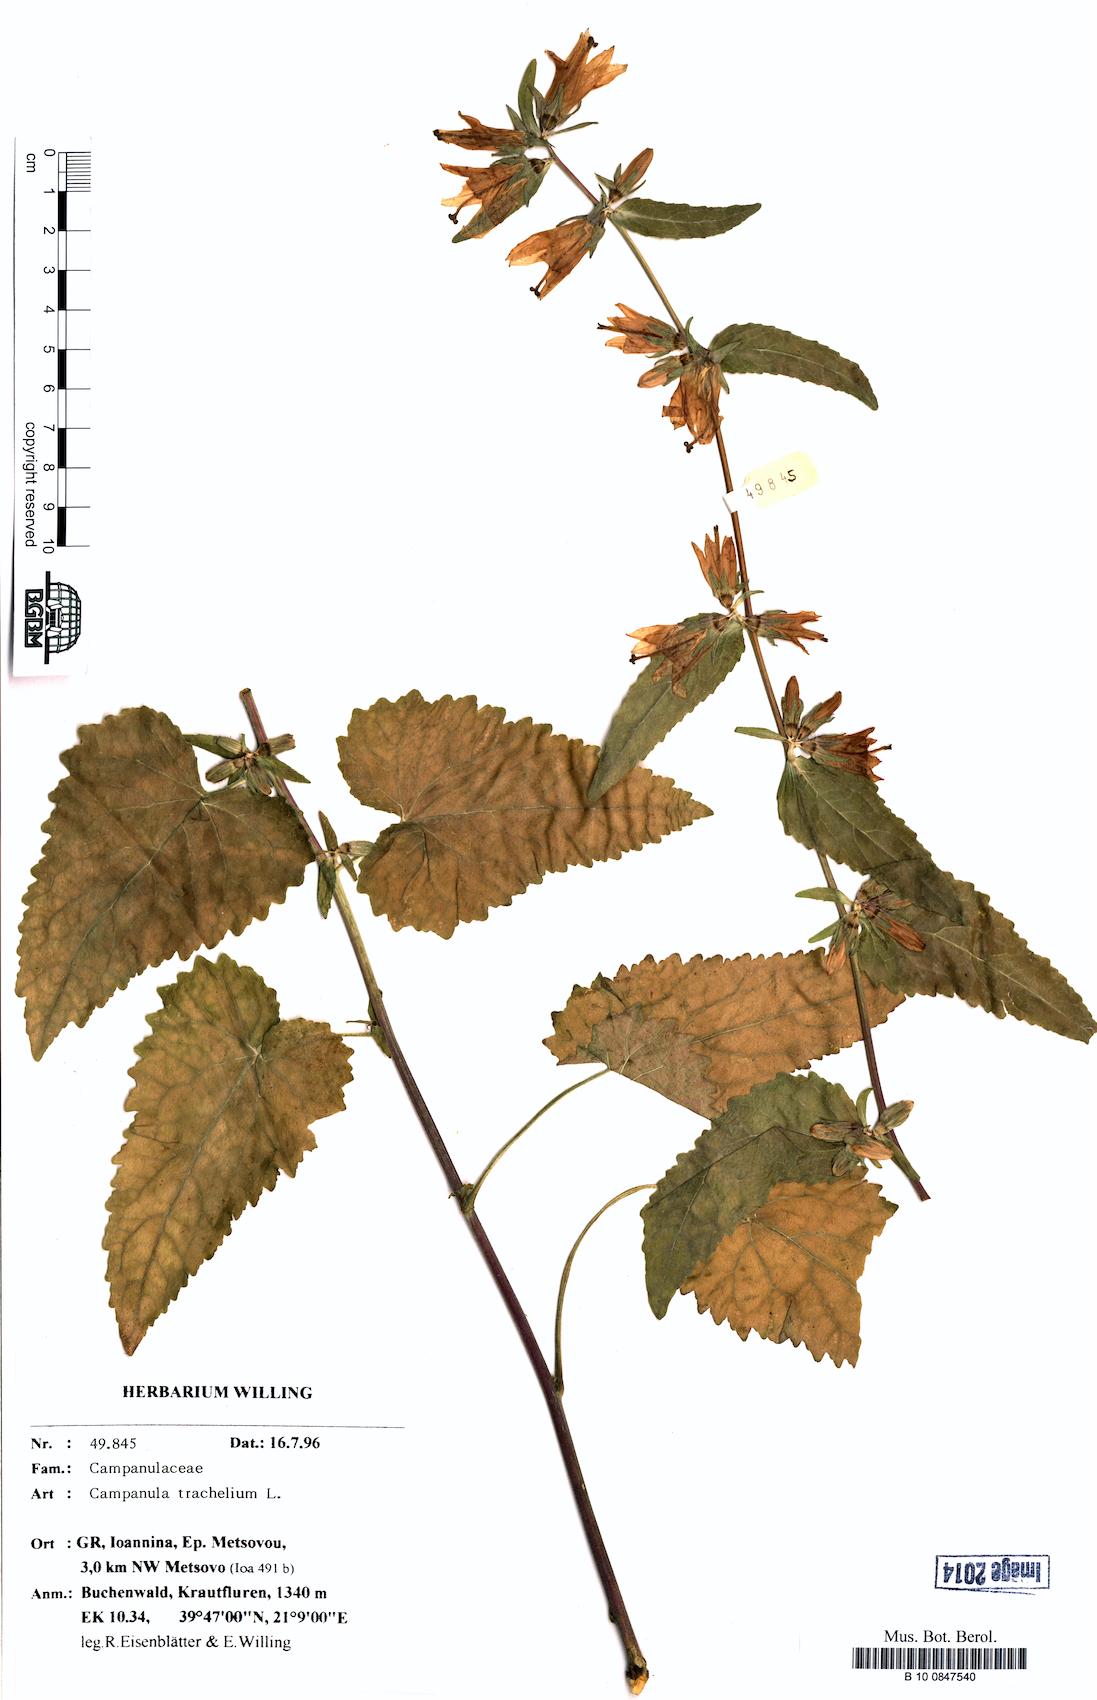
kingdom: Plantae
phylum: Tracheophyta
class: Magnoliopsida
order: Asterales
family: Campanulaceae
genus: Campanula
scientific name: Campanula trachelium
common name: Nettle-leaved bellflower
